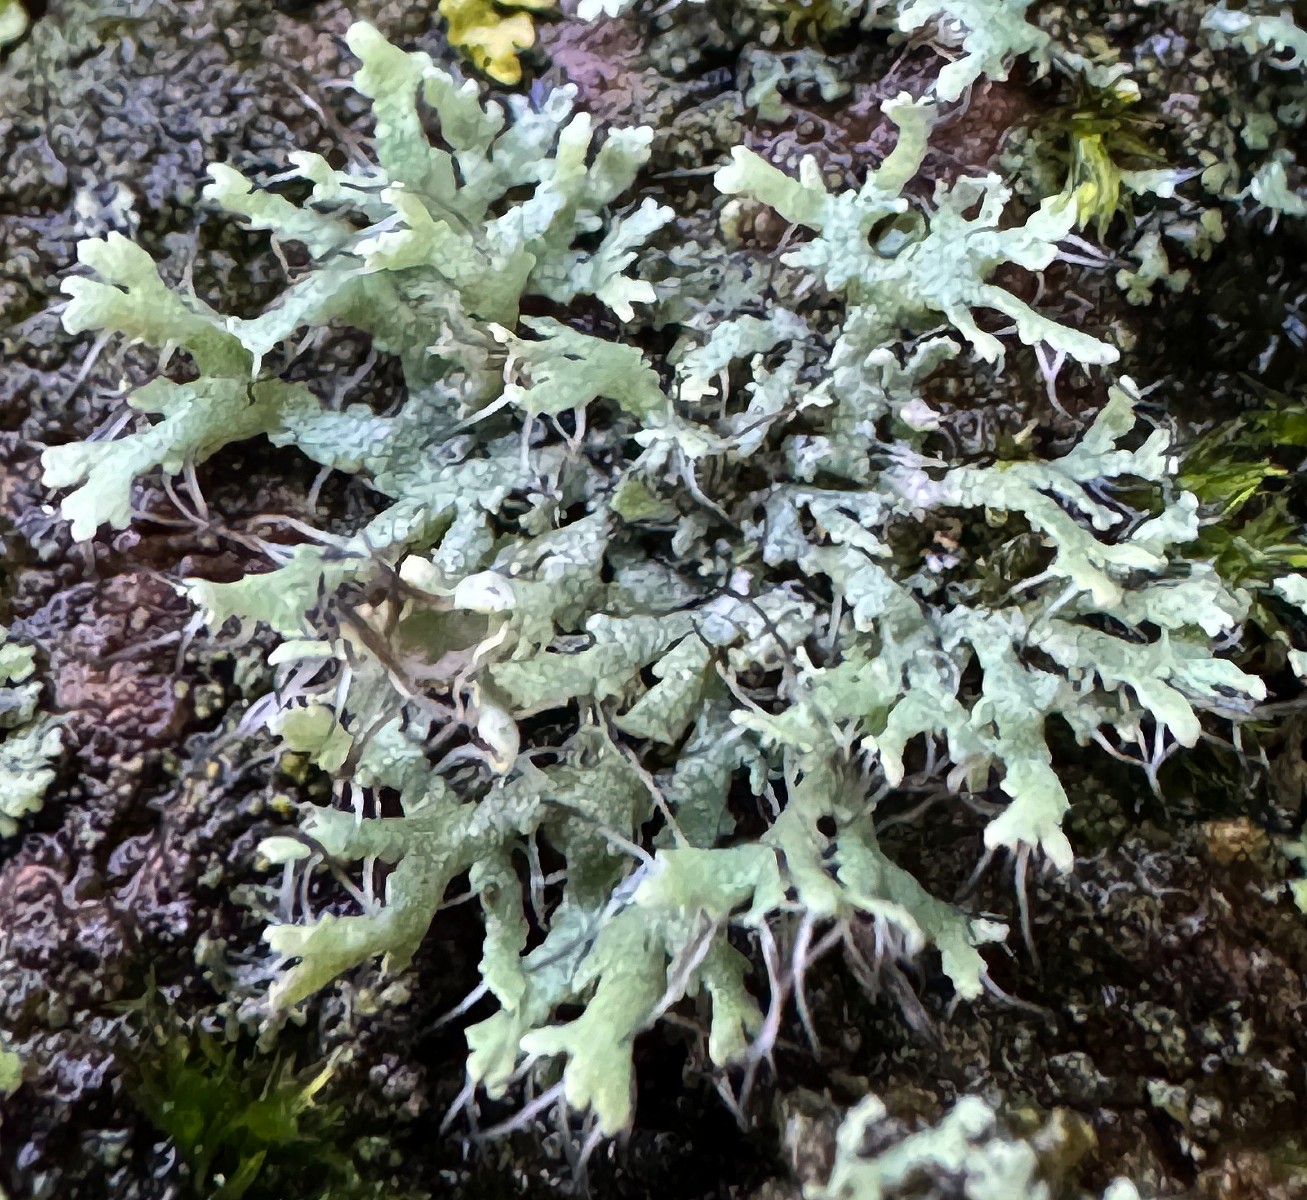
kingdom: Fungi
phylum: Ascomycota
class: Lecanoromycetes
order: Caliciales
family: Physciaceae
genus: Physcia
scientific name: Physcia tenella
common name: spæd rosetlav
